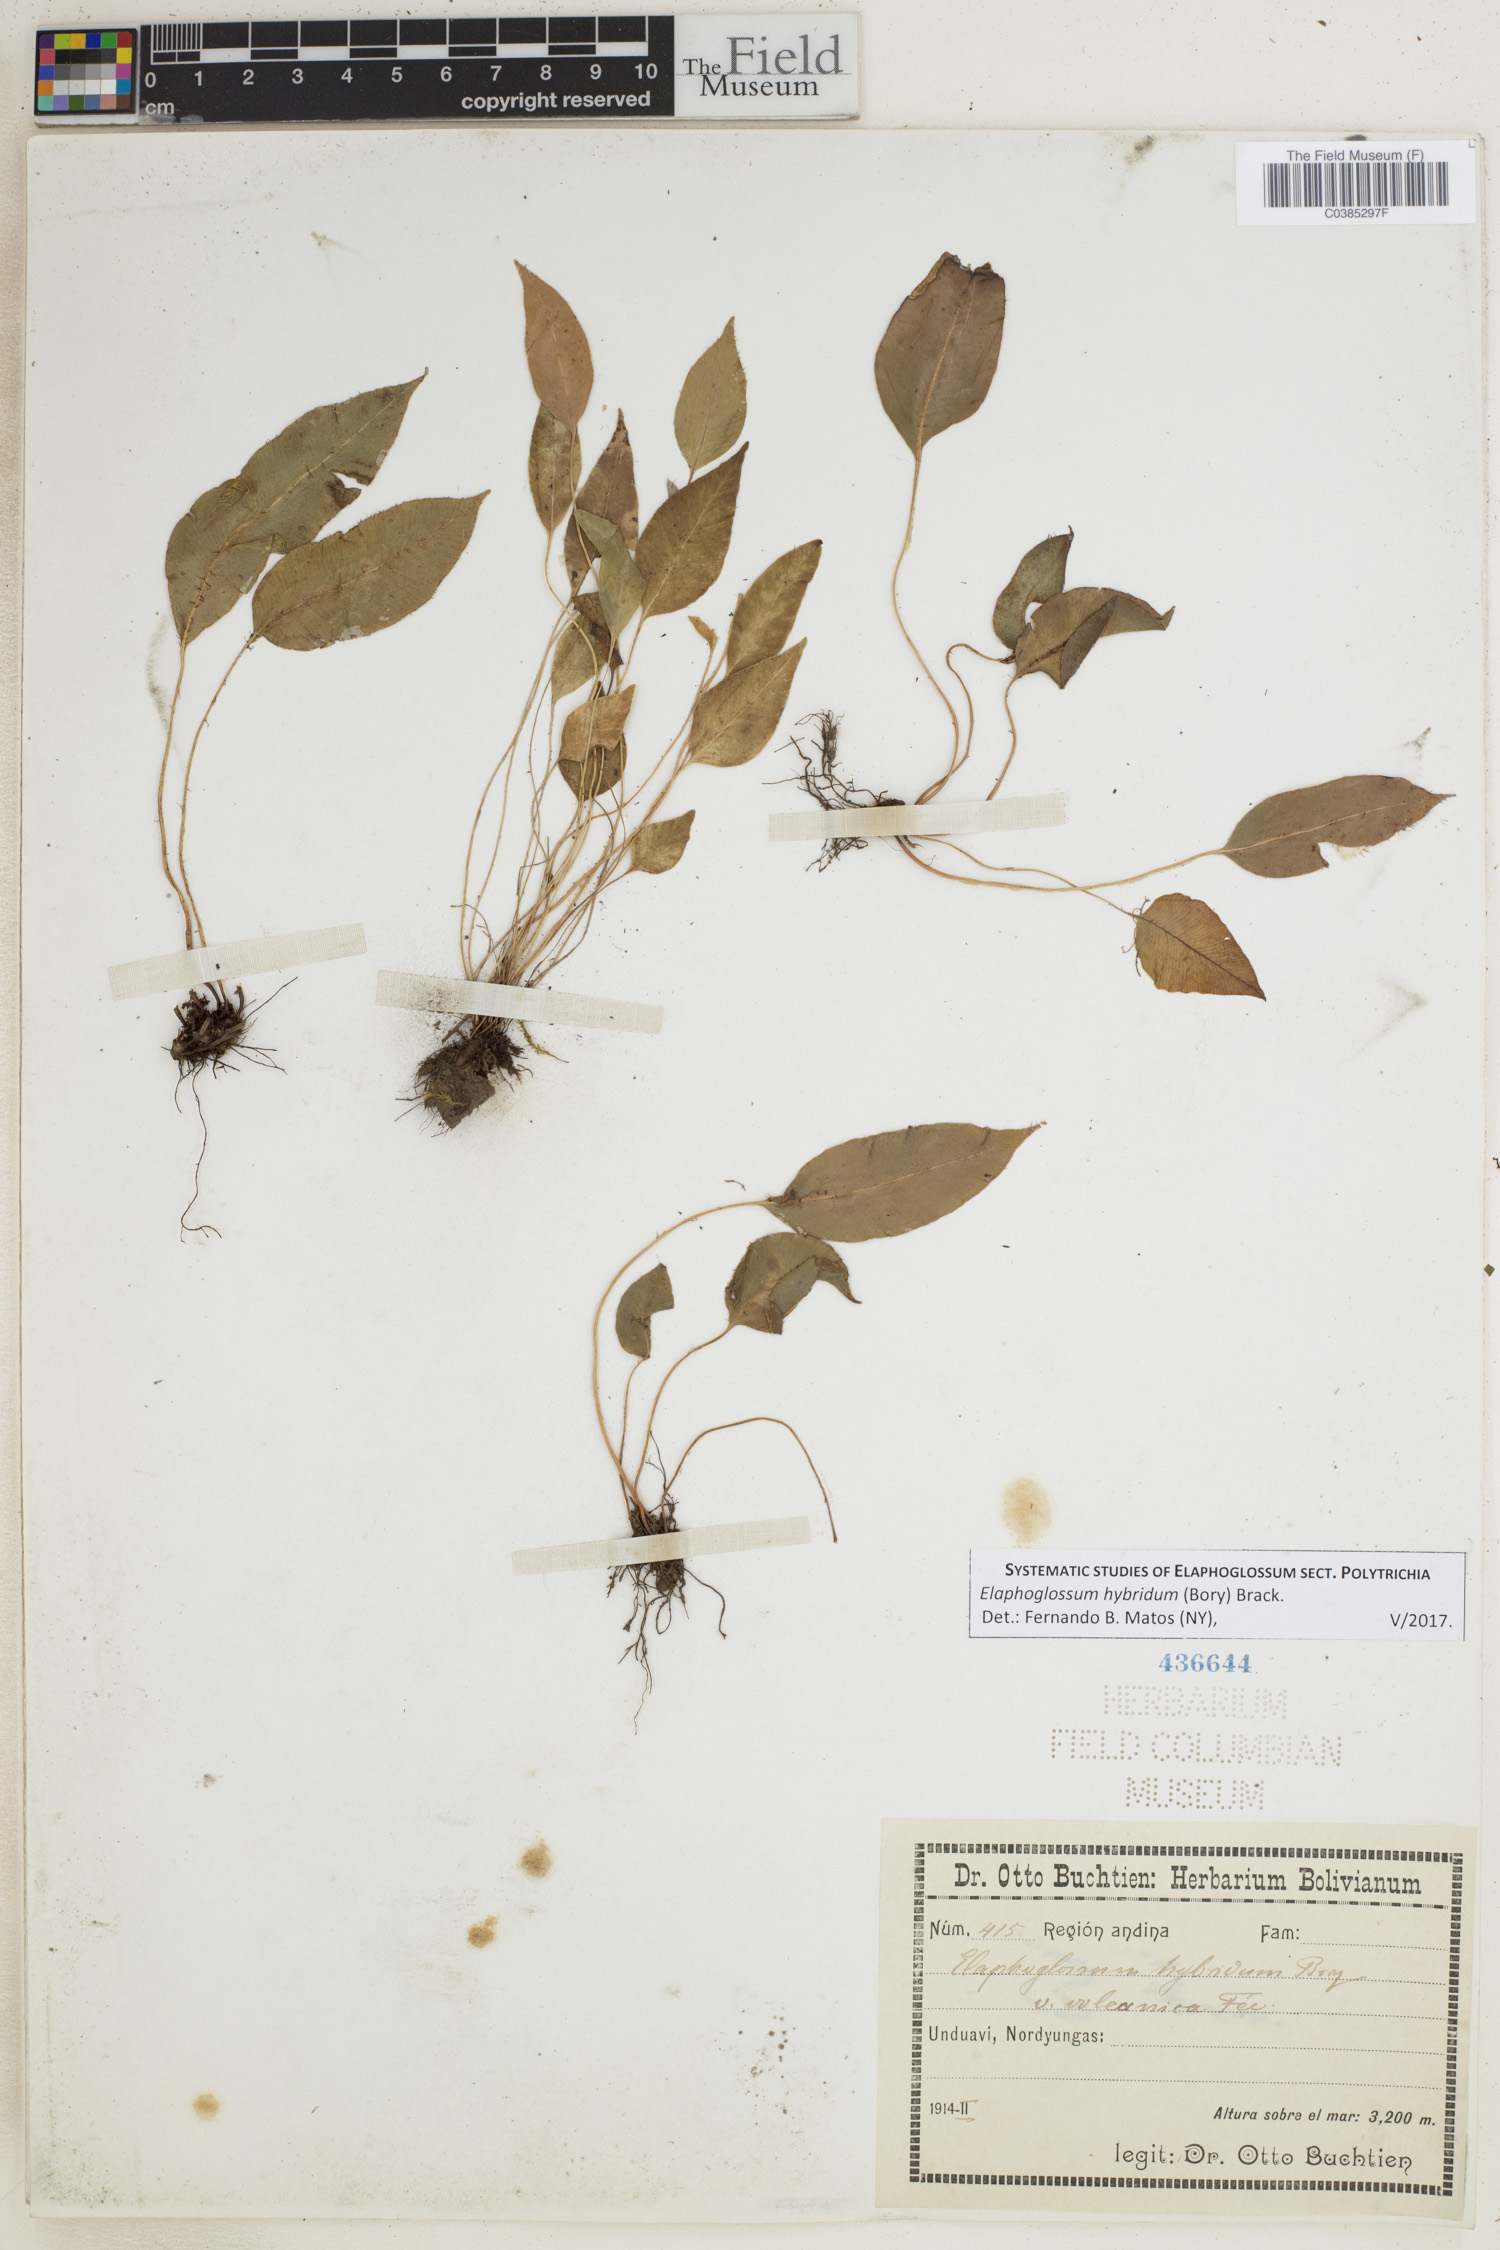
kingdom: Plantae
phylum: Tracheophyta
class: Polypodiopsida
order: Polypodiales
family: Dryopteridaceae
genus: Elaphoglossum
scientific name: Elaphoglossum hybridum
